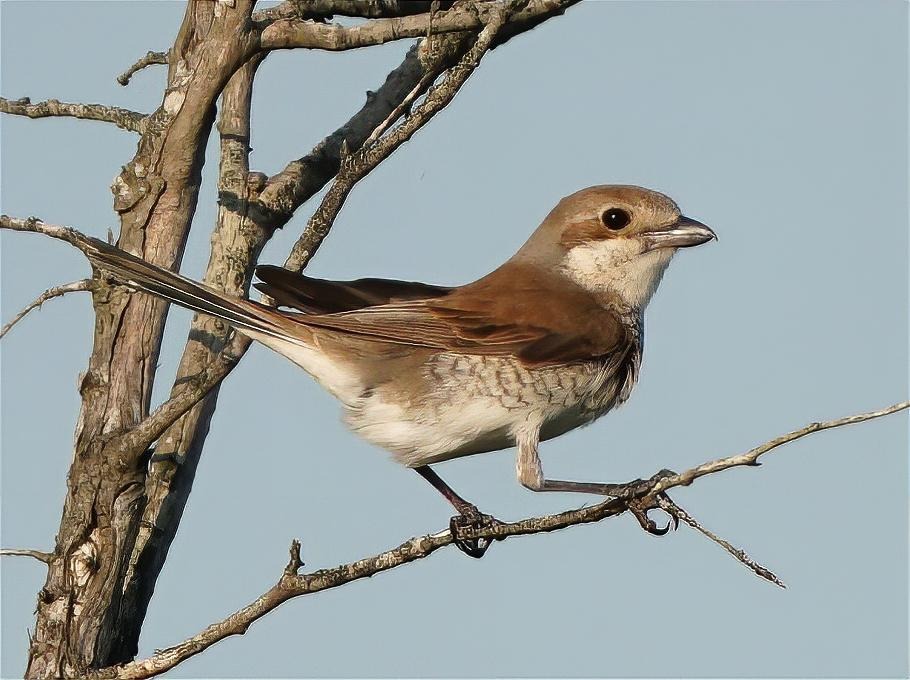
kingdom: Animalia
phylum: Chordata
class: Aves
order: Passeriformes
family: Laniidae
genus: Lanius
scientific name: Lanius collurio
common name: Rødrygget tornskade
